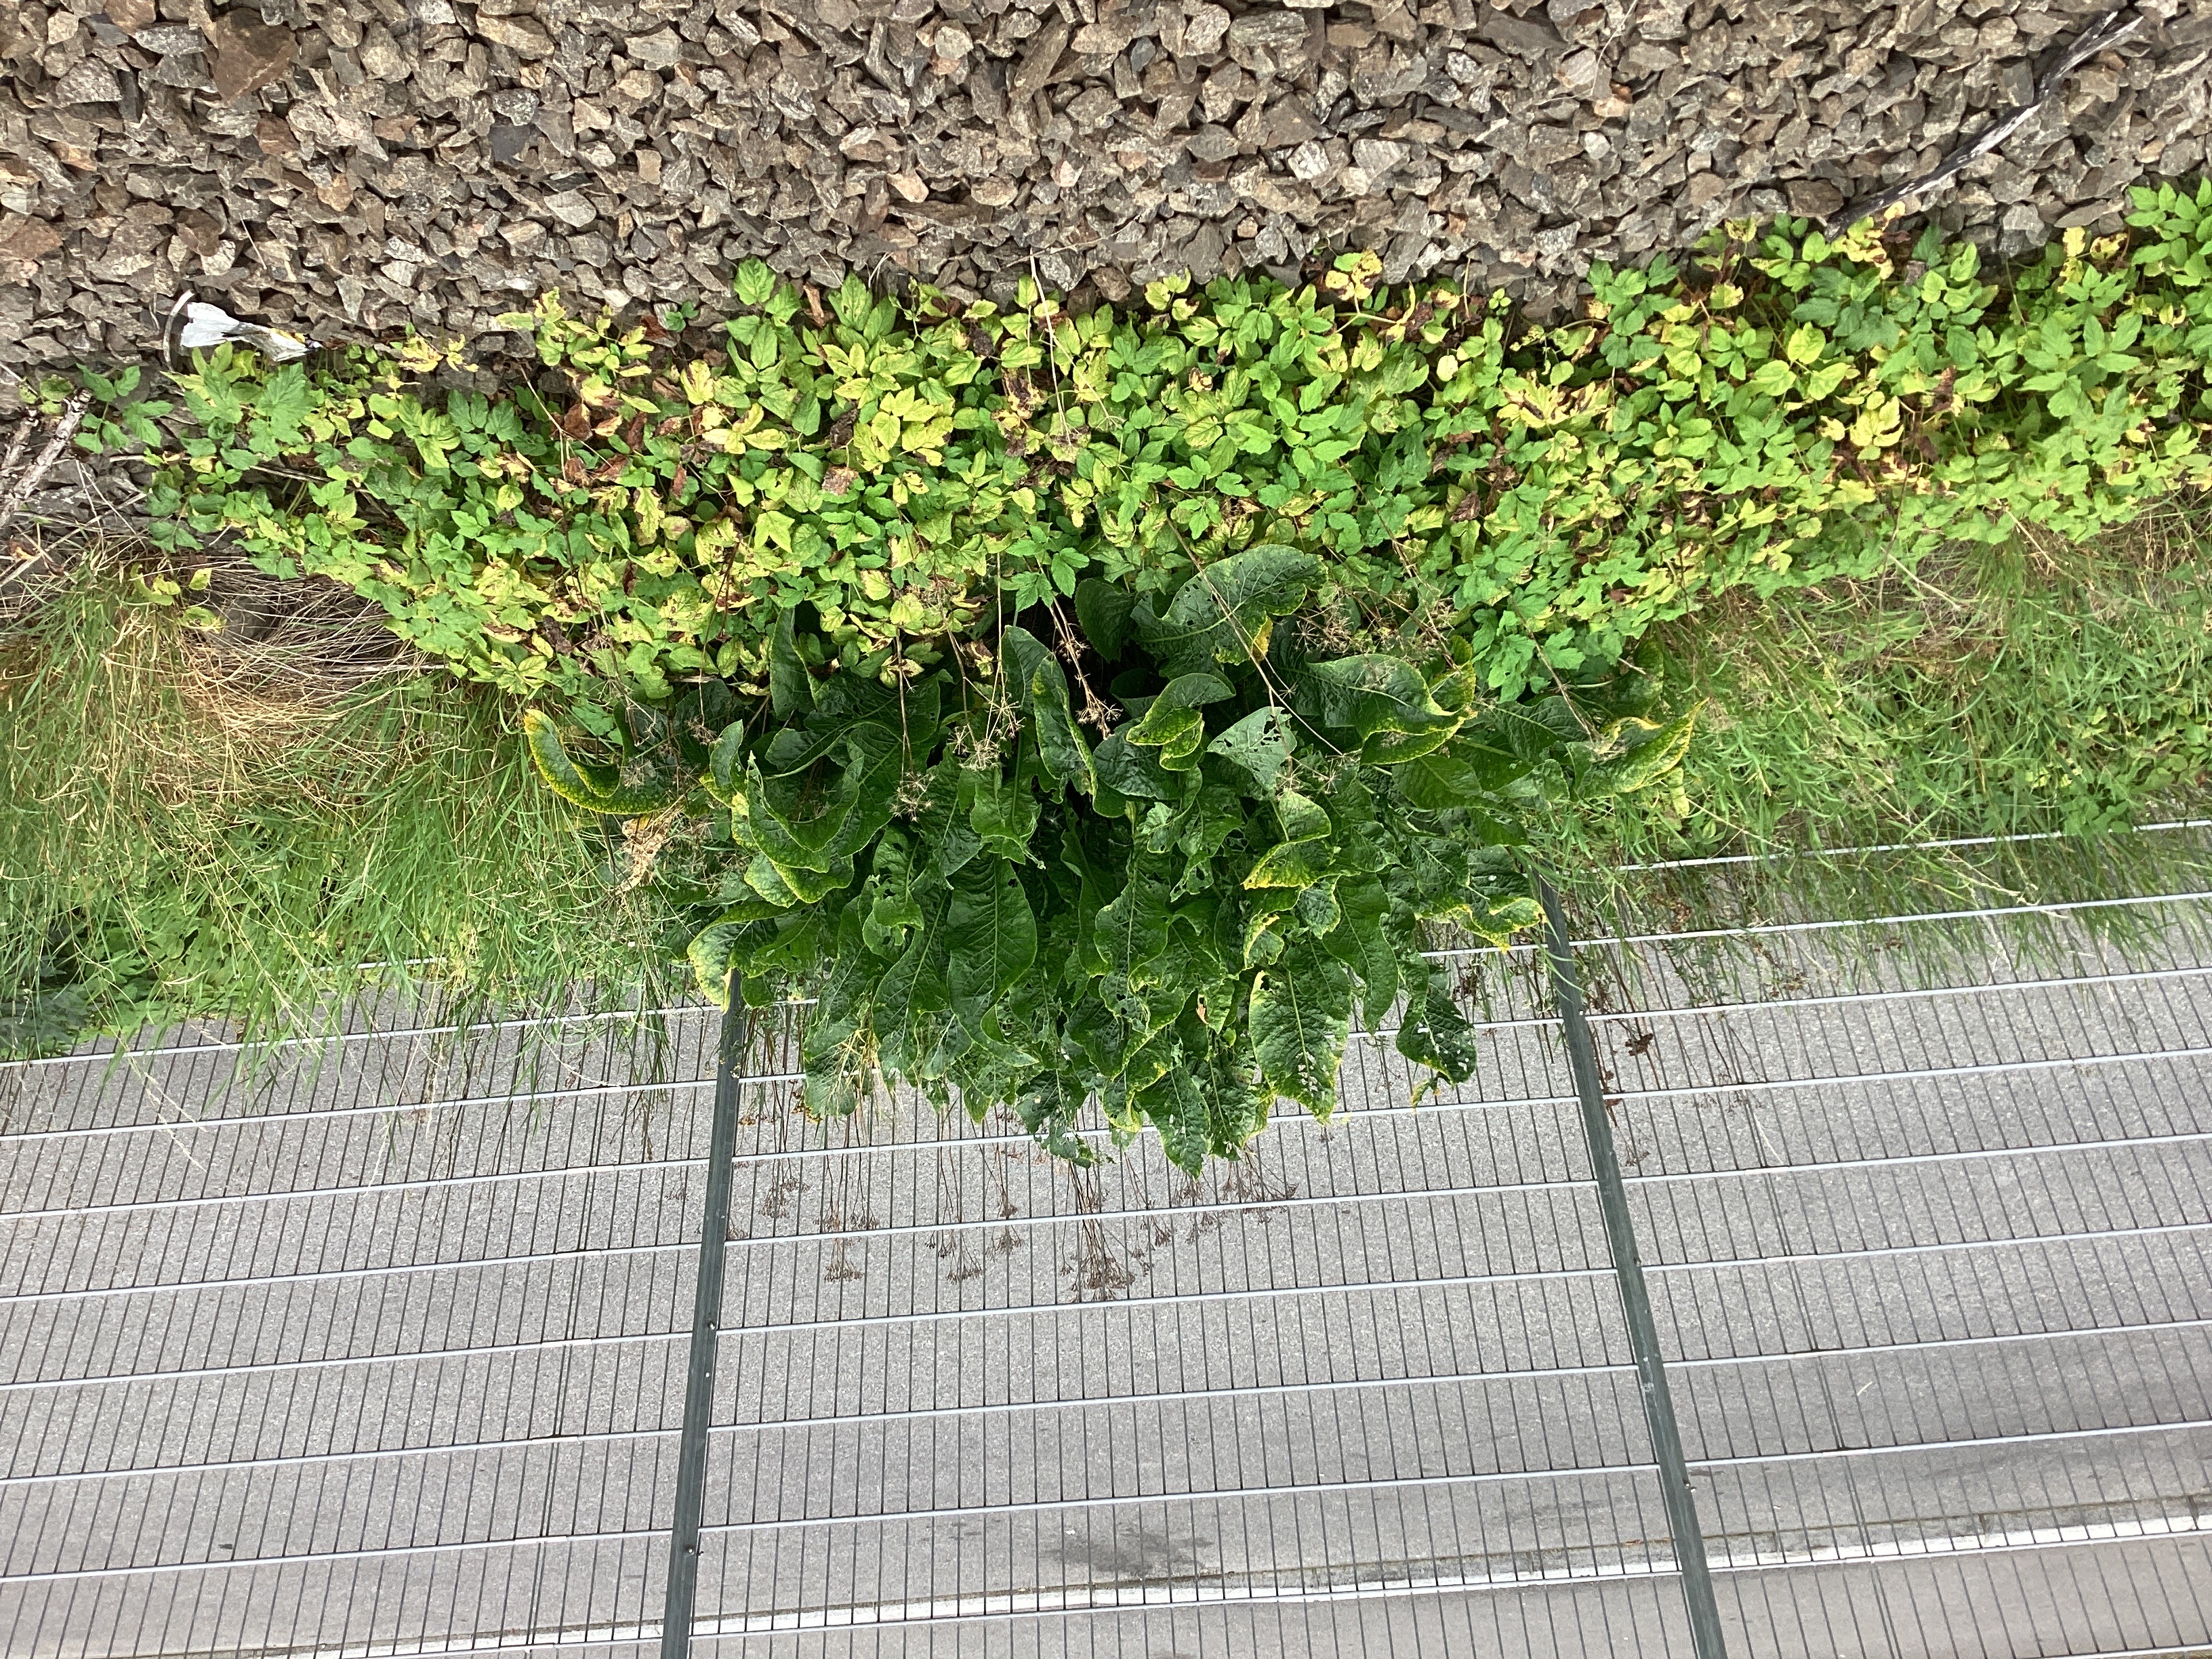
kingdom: Plantae
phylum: Tracheophyta
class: Magnoliopsida
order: Brassicales
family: Brassicaceae
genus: Armoracia
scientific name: Armoracia rusticana
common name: pepperrot
